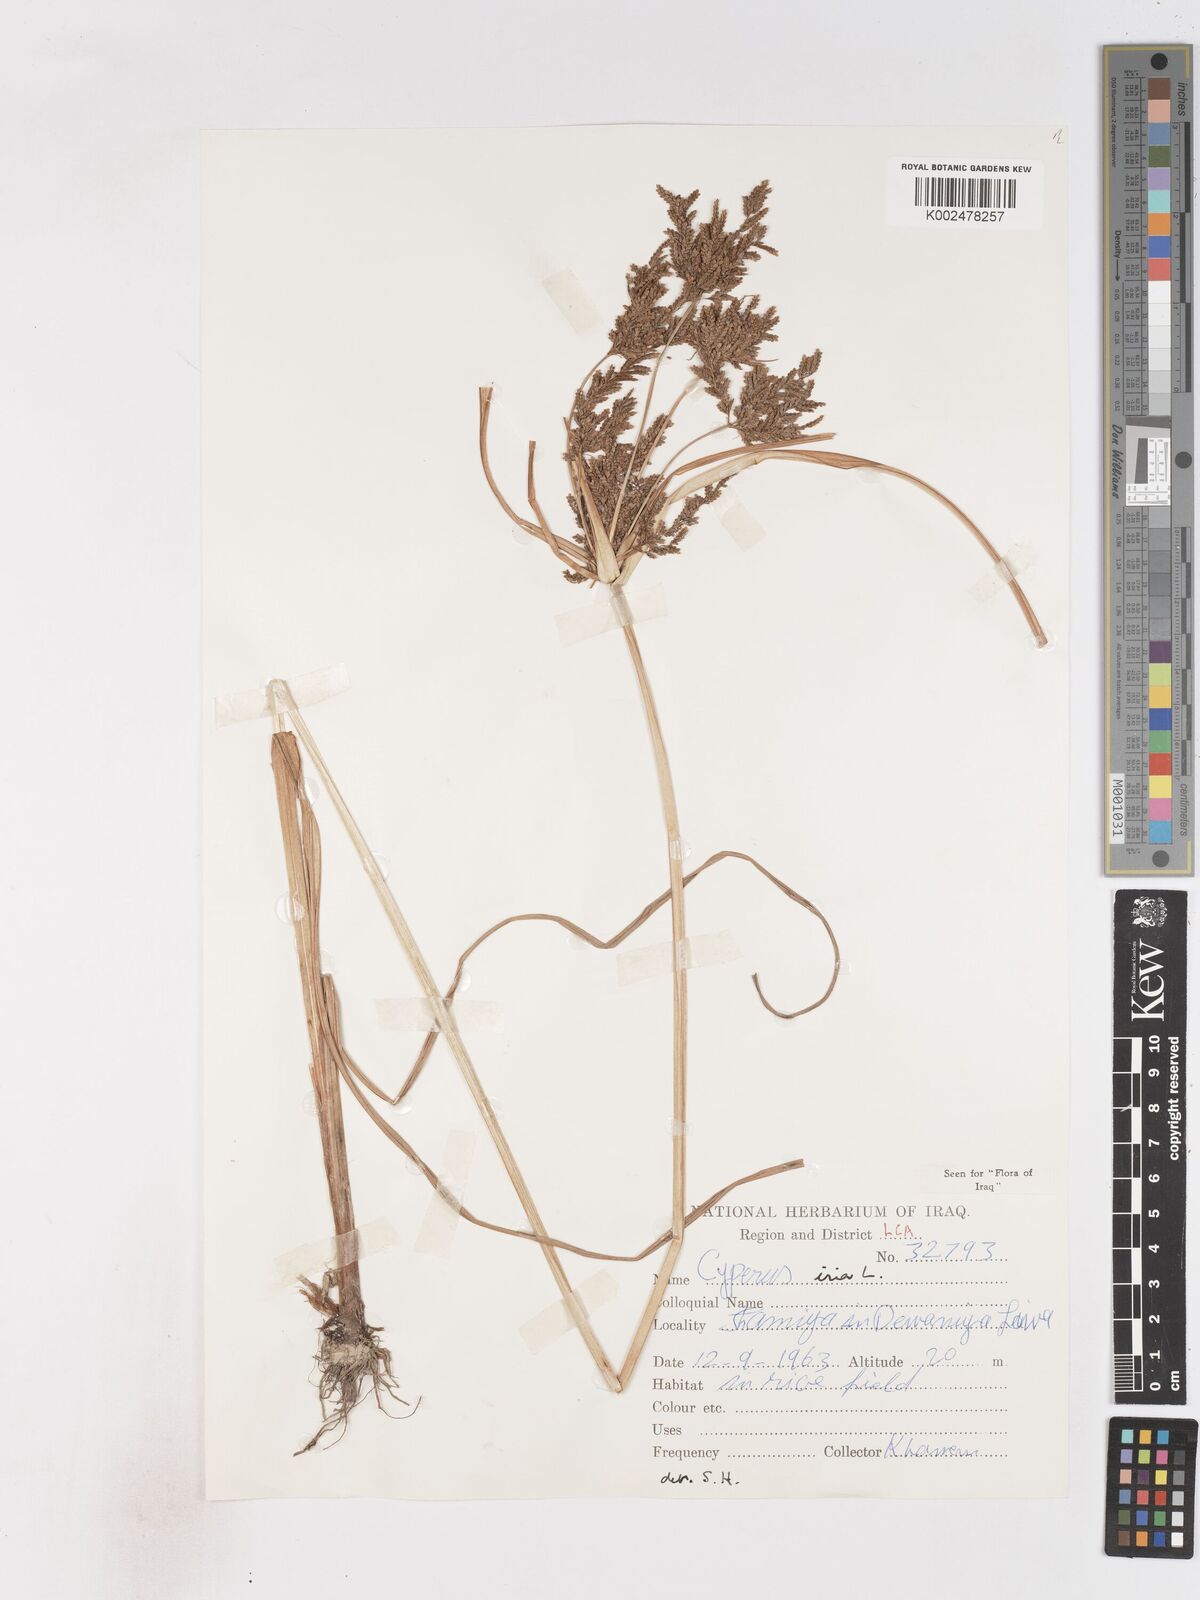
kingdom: Plantae
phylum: Tracheophyta
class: Liliopsida
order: Poales
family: Cyperaceae
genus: Cyperus
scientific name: Cyperus iria
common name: Ricefield flatsedge
